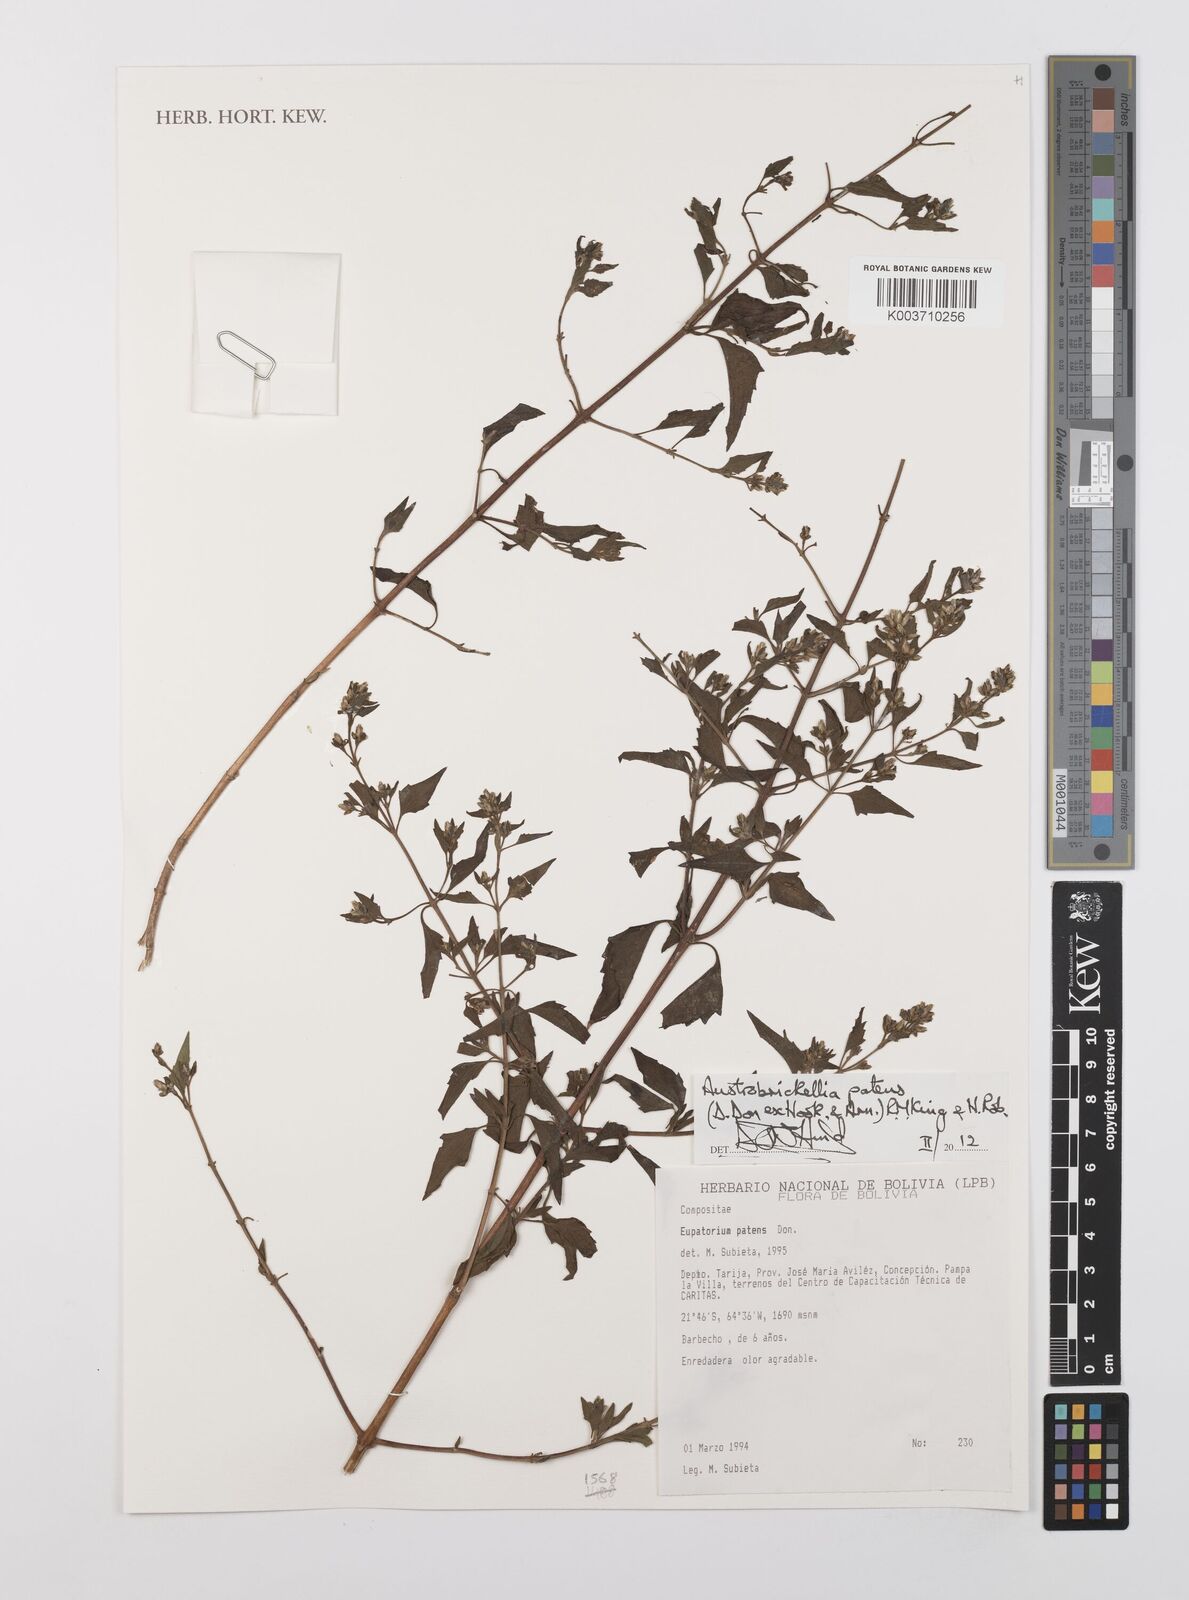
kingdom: Plantae
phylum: Tracheophyta
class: Magnoliopsida
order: Asterales
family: Asteraceae
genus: Austrobrickellia
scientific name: Austrobrickellia patens
